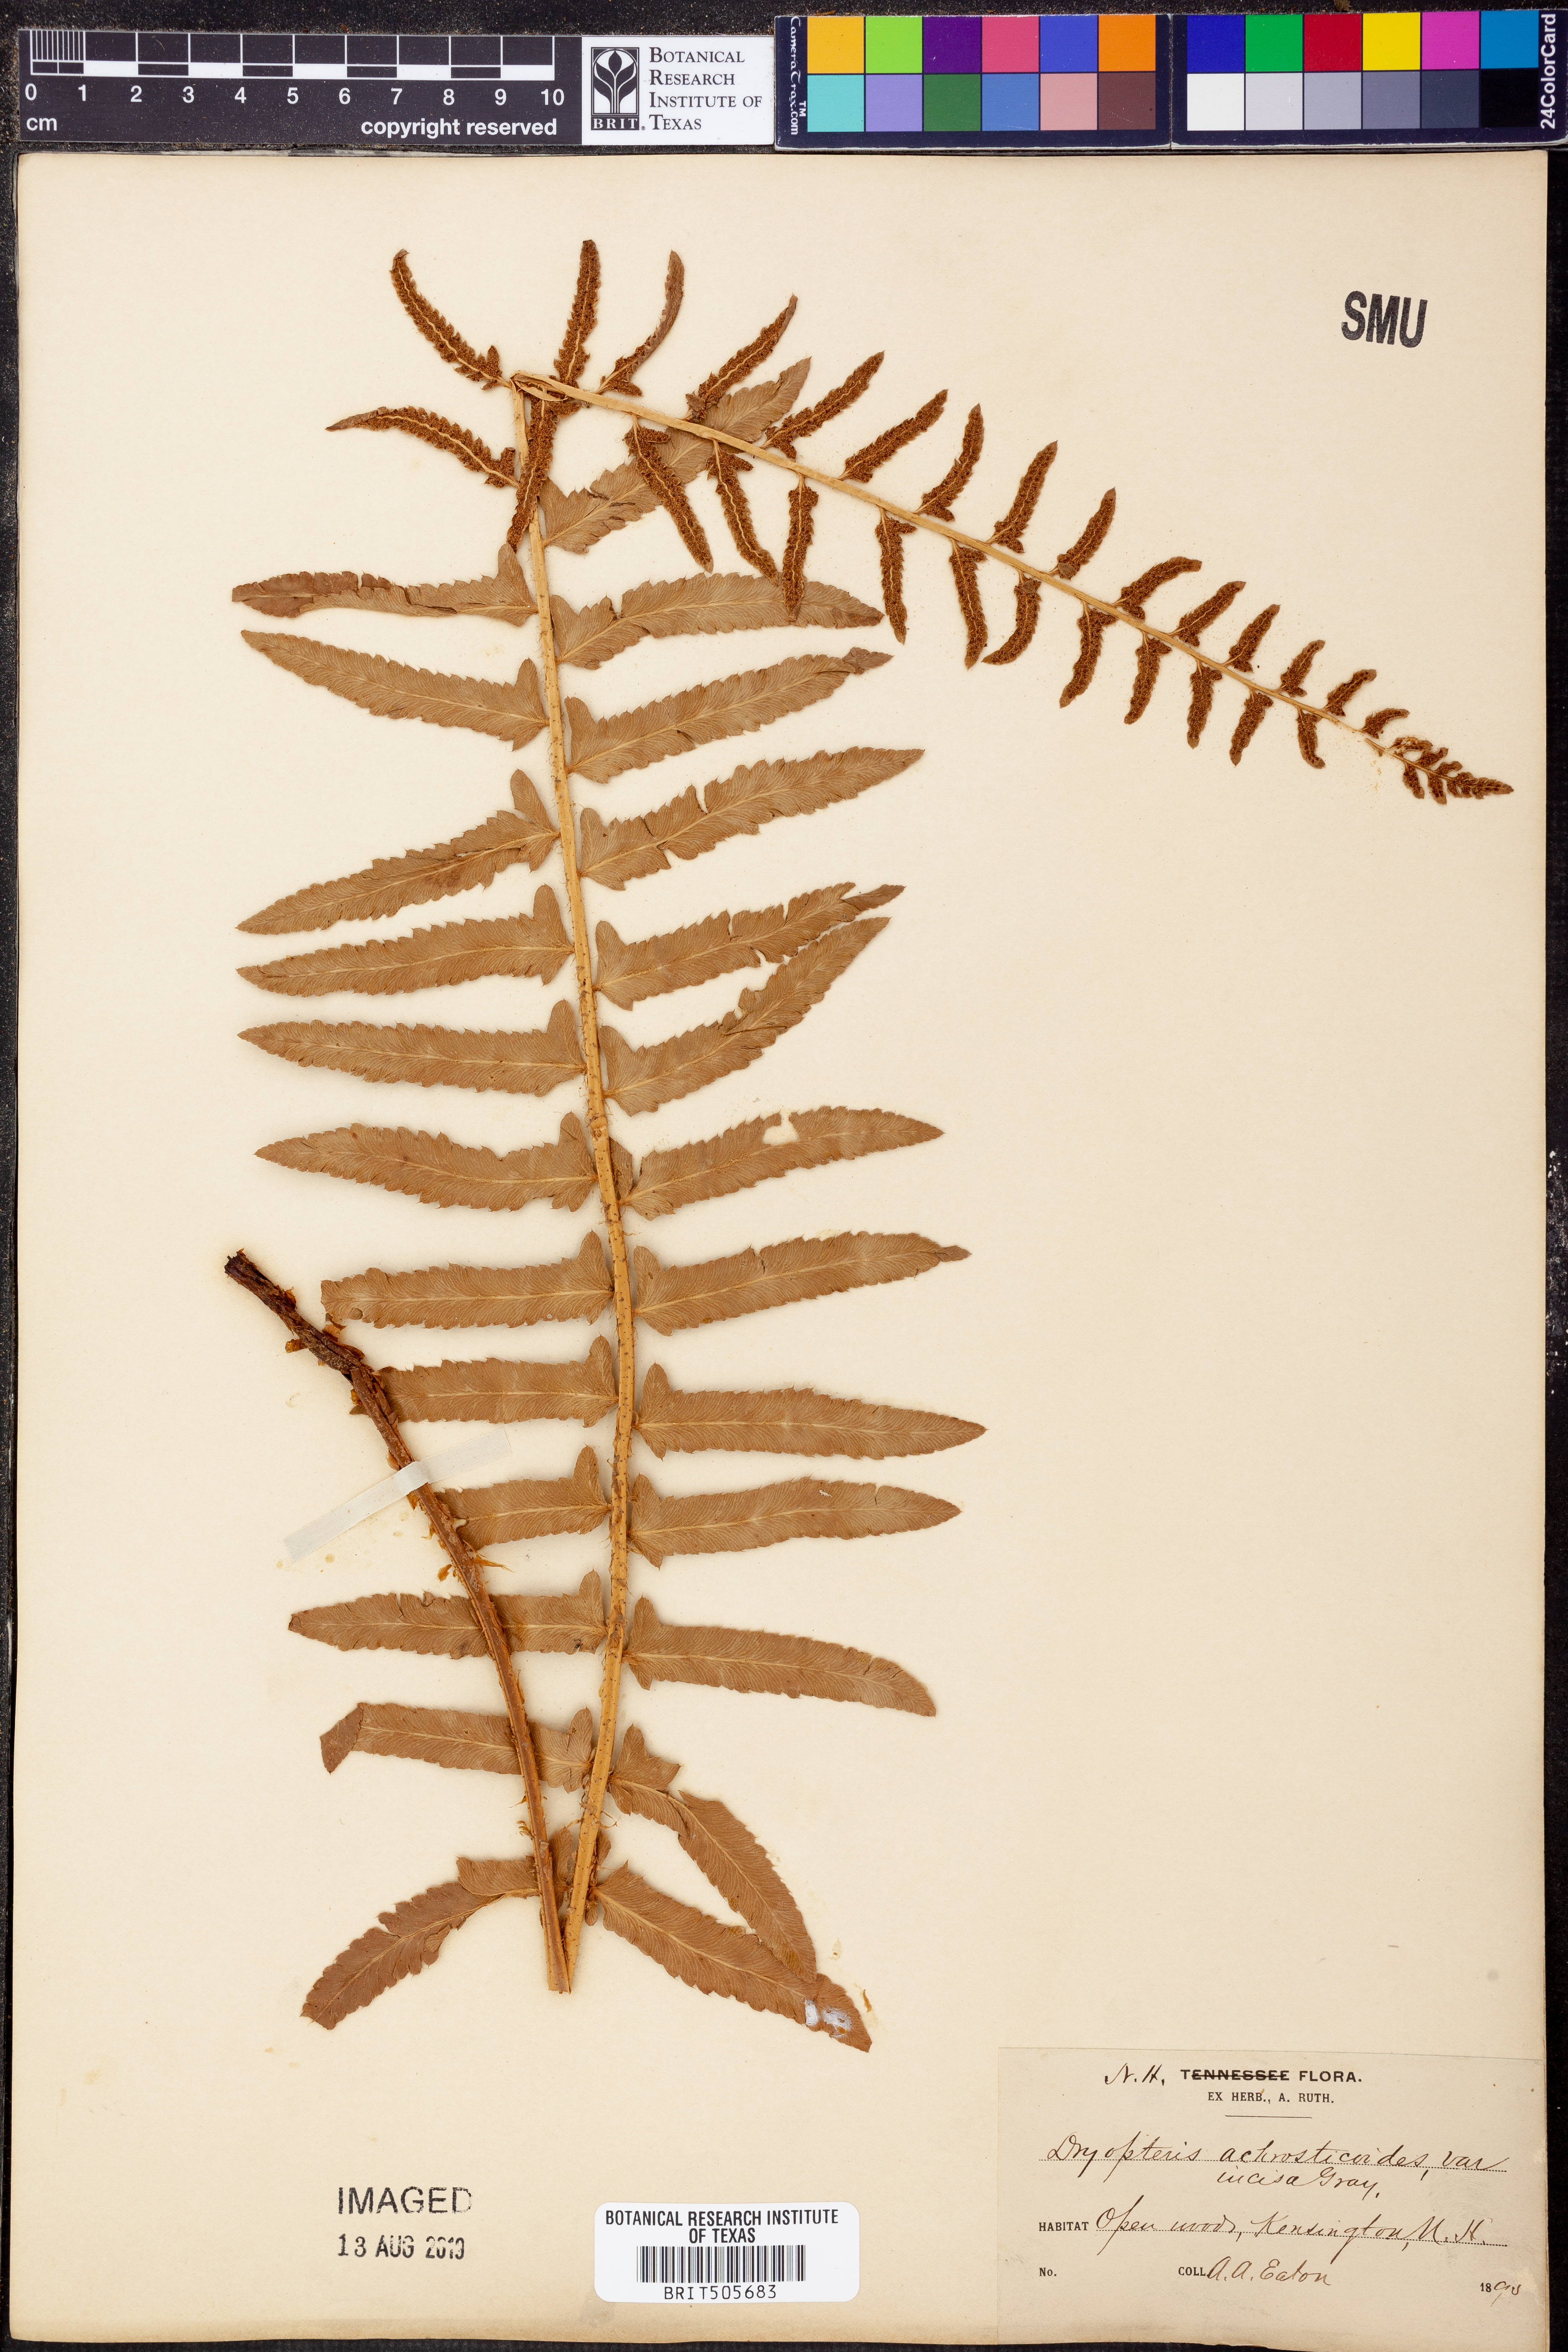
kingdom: Plantae
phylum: Tracheophyta
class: Polypodiopsida
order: Polypodiales
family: Dryopteridaceae
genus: Polystichum
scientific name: Polystichum acrostichoides
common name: Christmas fern
